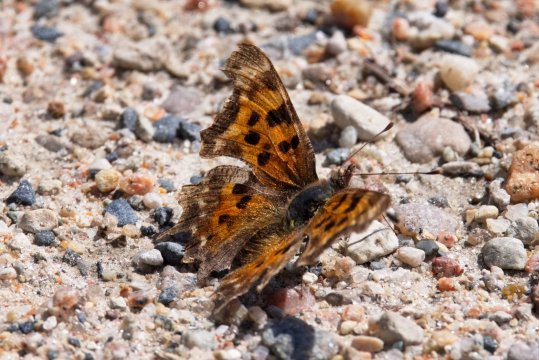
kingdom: Animalia
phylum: Arthropoda
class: Insecta
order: Lepidoptera
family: Nymphalidae
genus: Polygonia
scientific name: Polygonia faunus
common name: Green Comma
